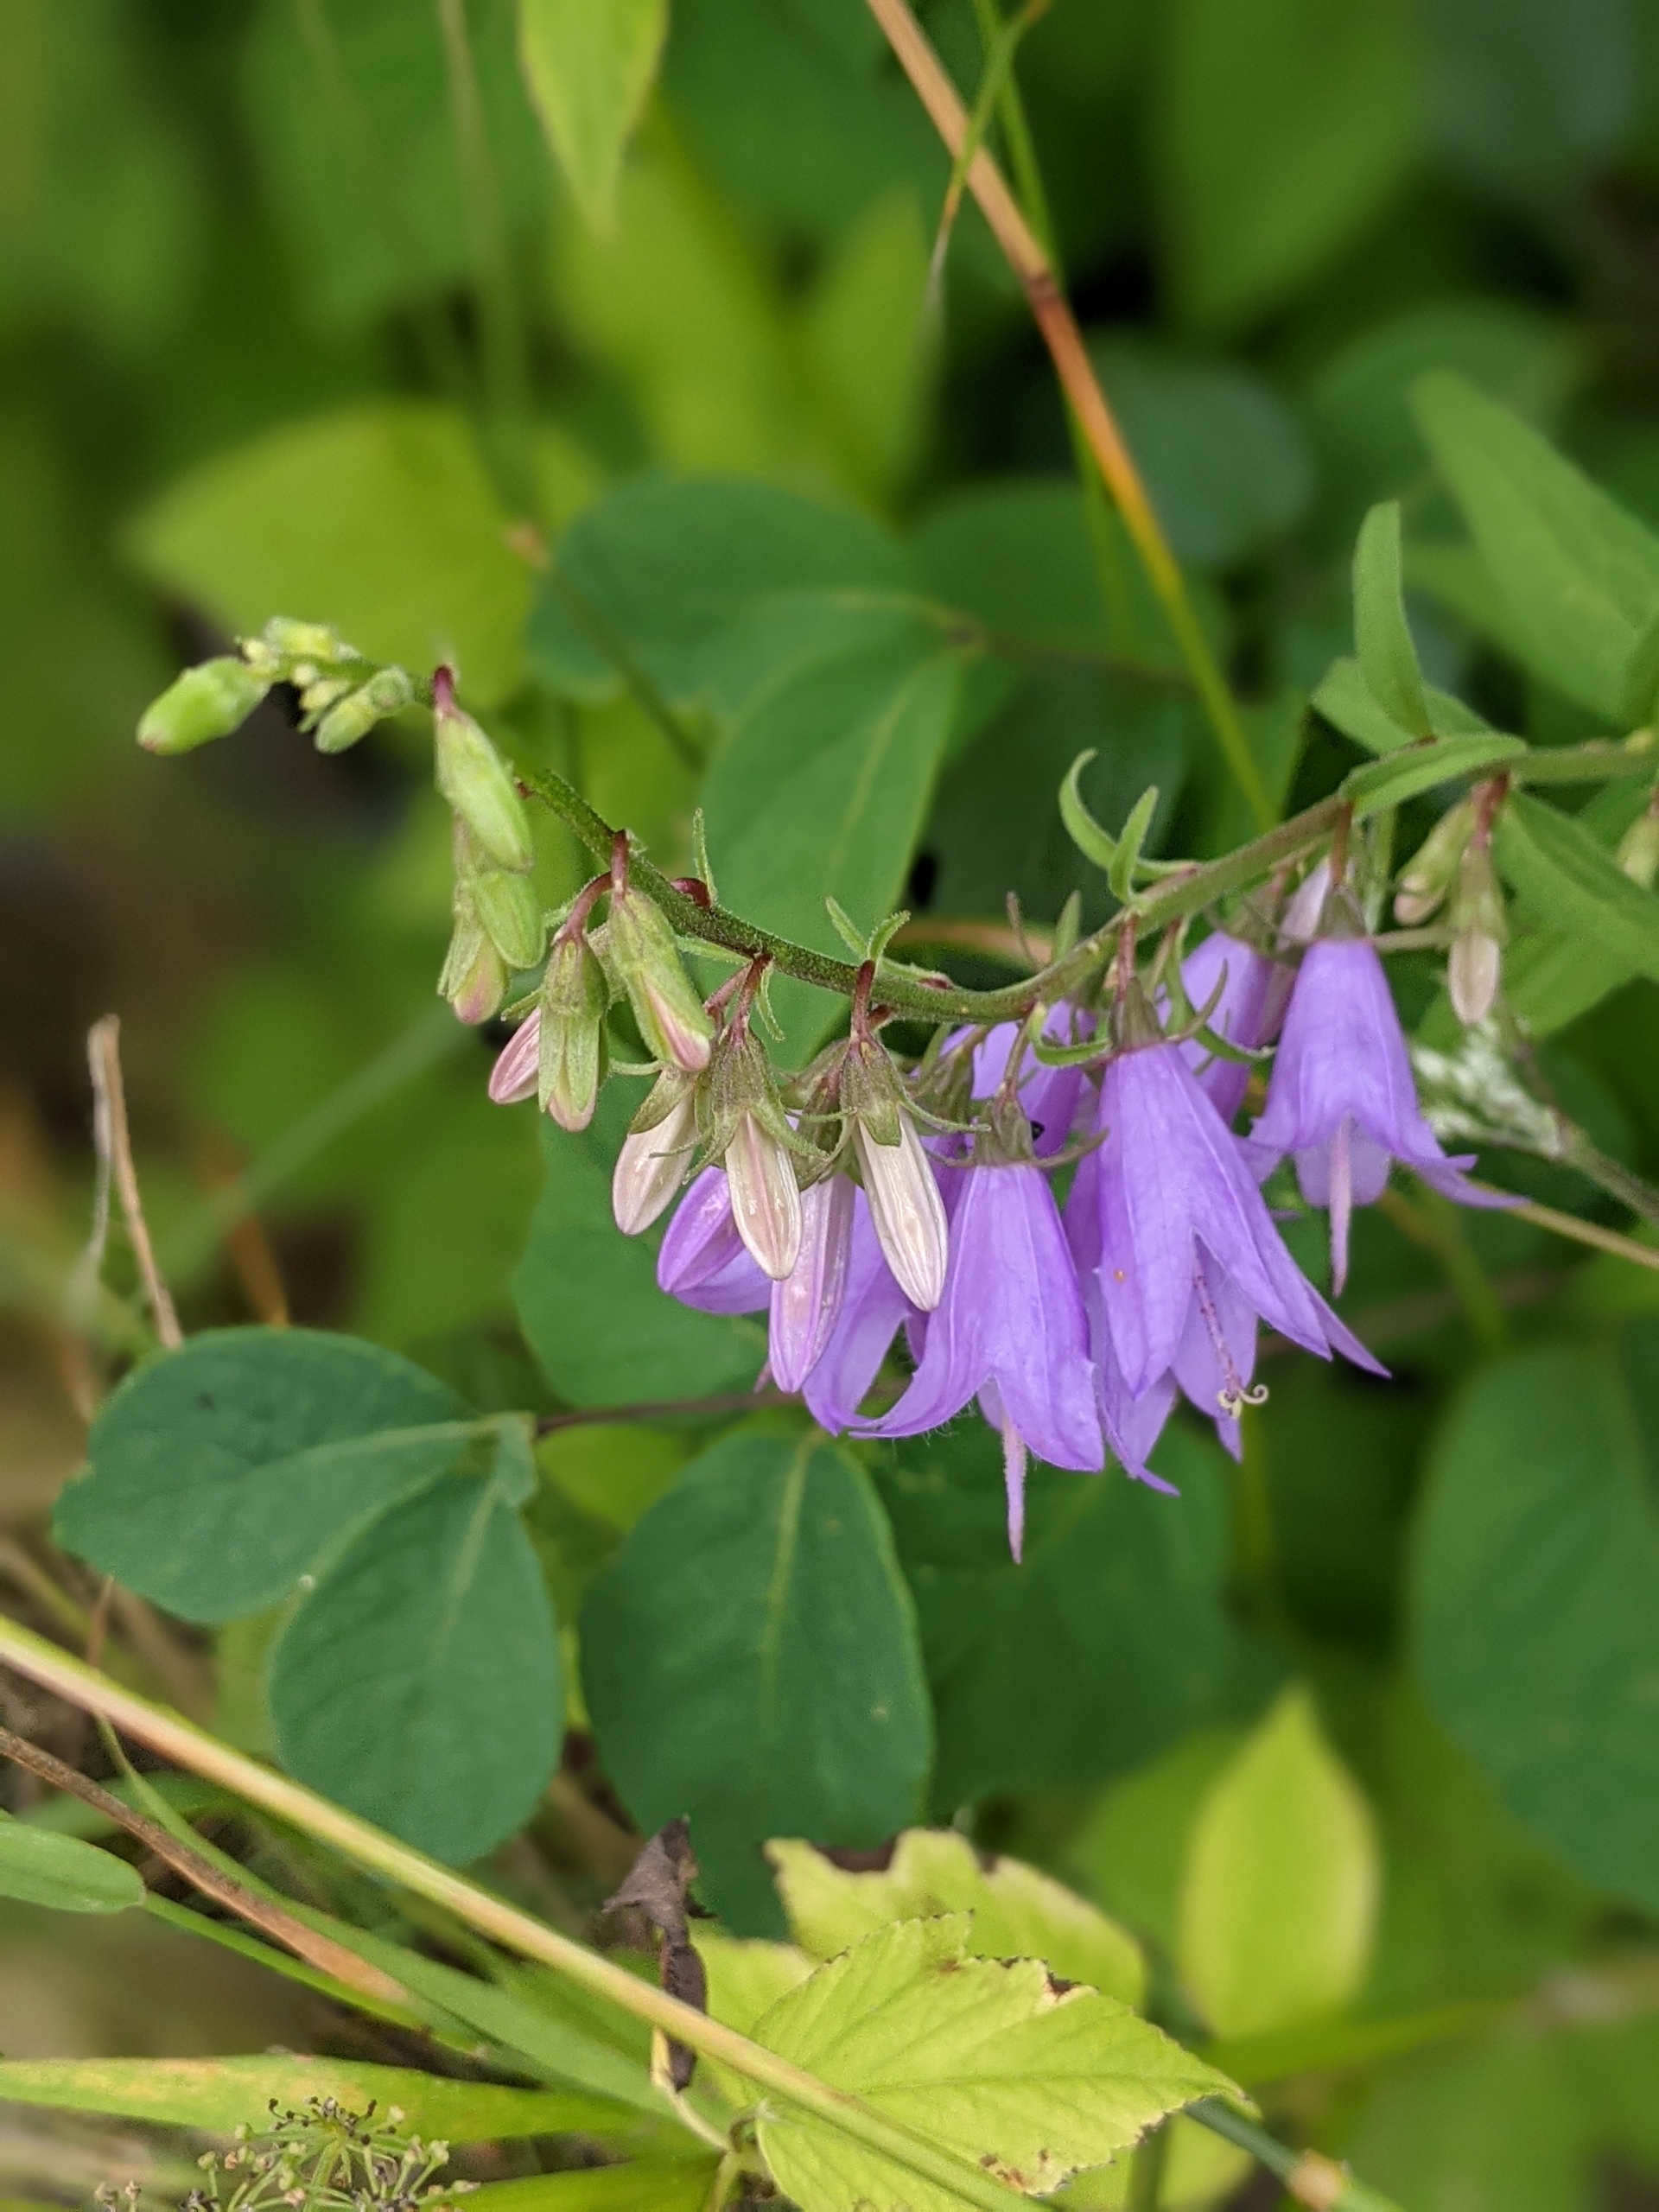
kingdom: Plantae
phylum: Tracheophyta
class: Magnoliopsida
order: Asterales
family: Campanulaceae
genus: Campanula
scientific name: Campanula rapunculoides
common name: Ensidig klokke
